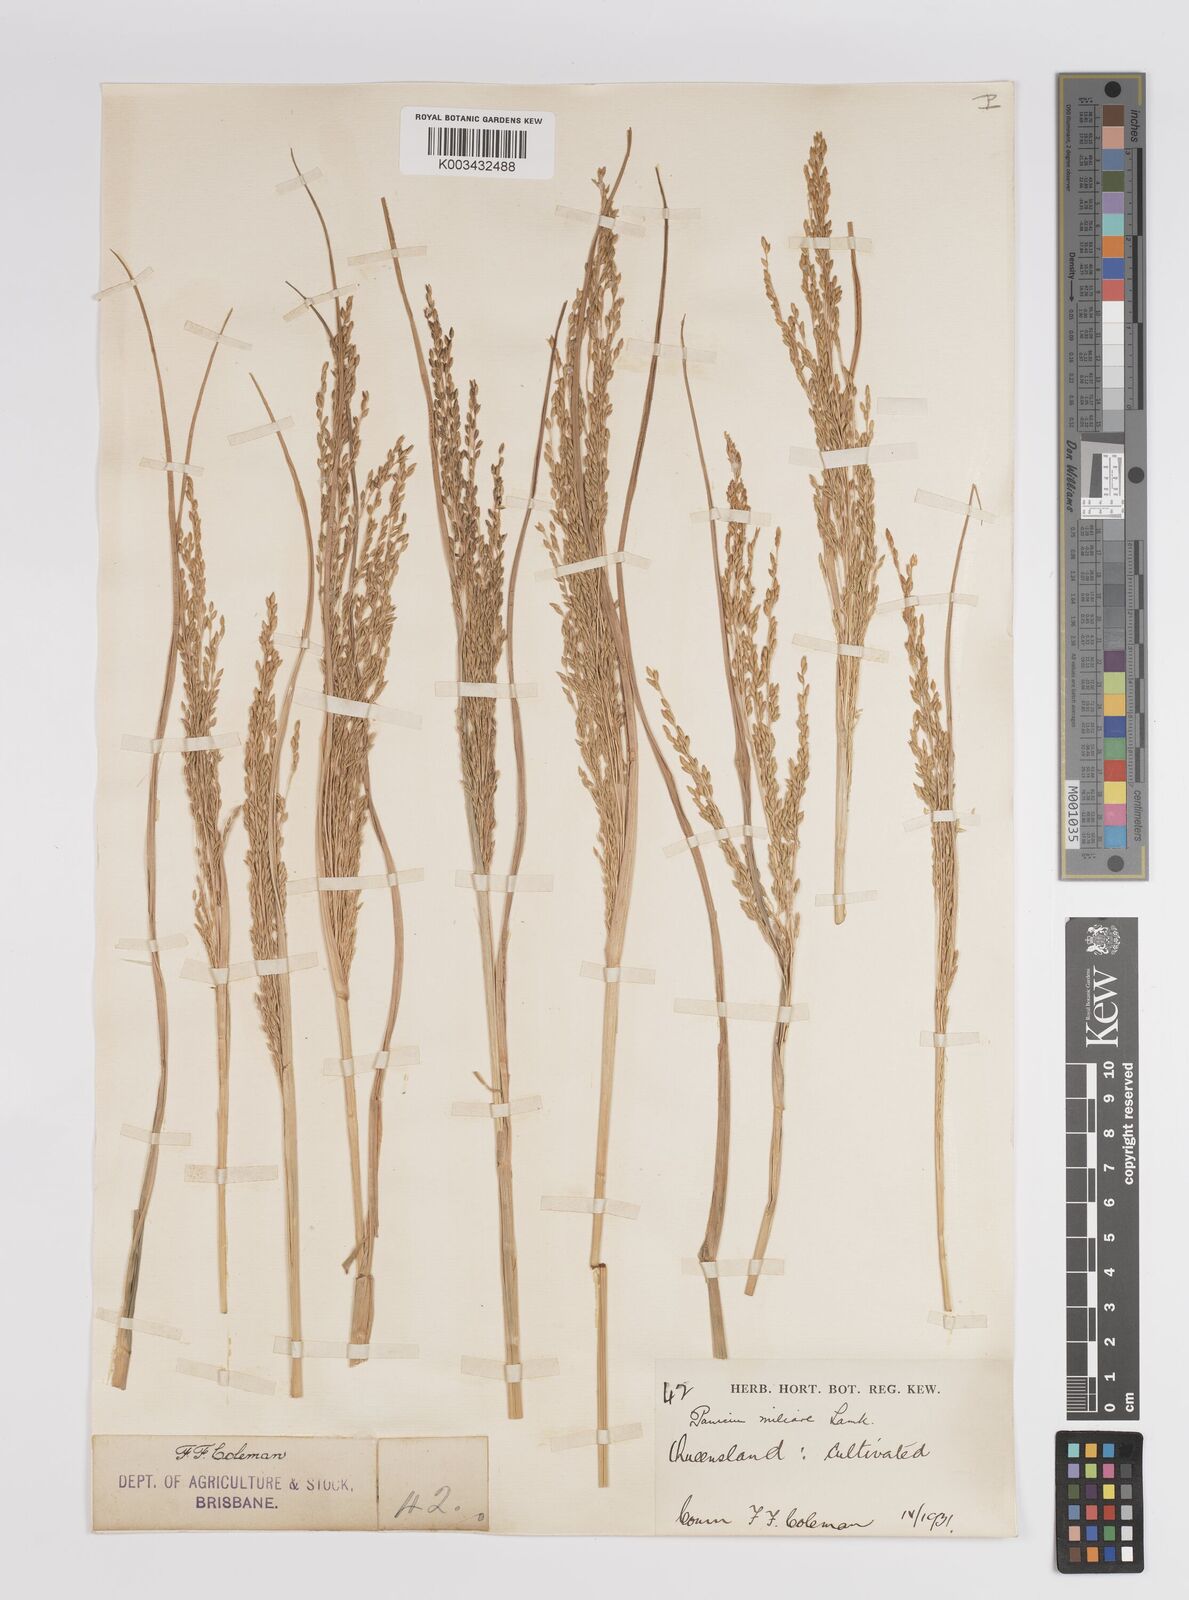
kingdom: Plantae
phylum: Tracheophyta
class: Liliopsida
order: Poales
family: Poaceae
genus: Panicum
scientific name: Panicum sumatrense
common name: Little millet
